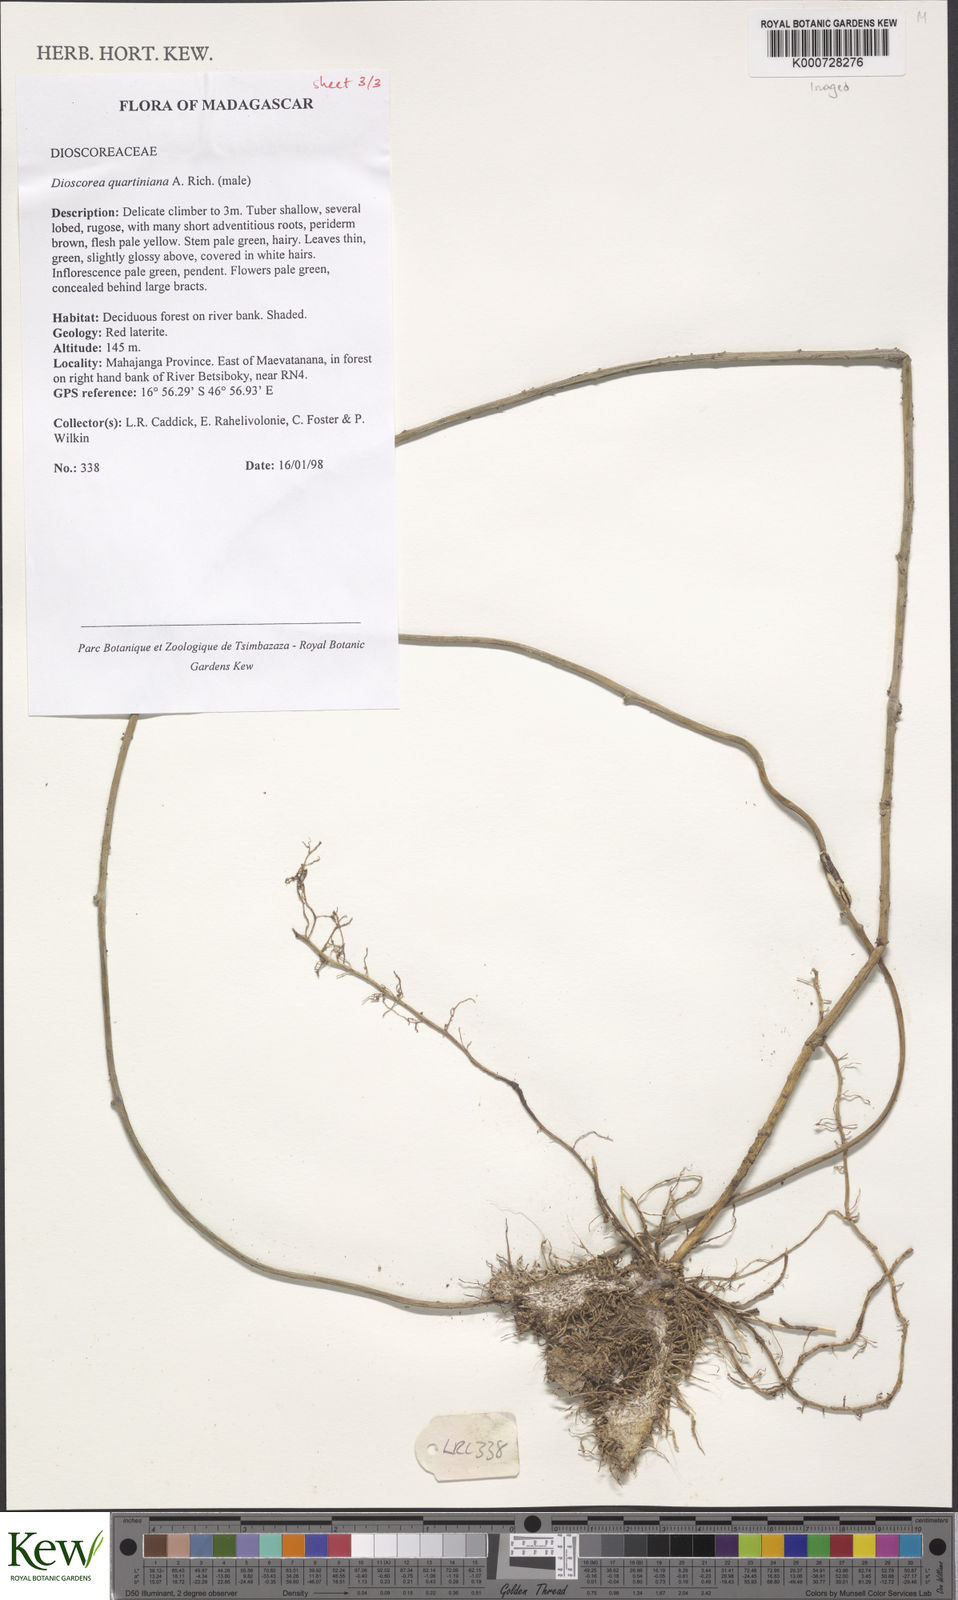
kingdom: Plantae
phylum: Tracheophyta
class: Liliopsida
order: Dioscoreales
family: Dioscoreaceae
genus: Dioscorea
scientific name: Dioscorea quartiniana
